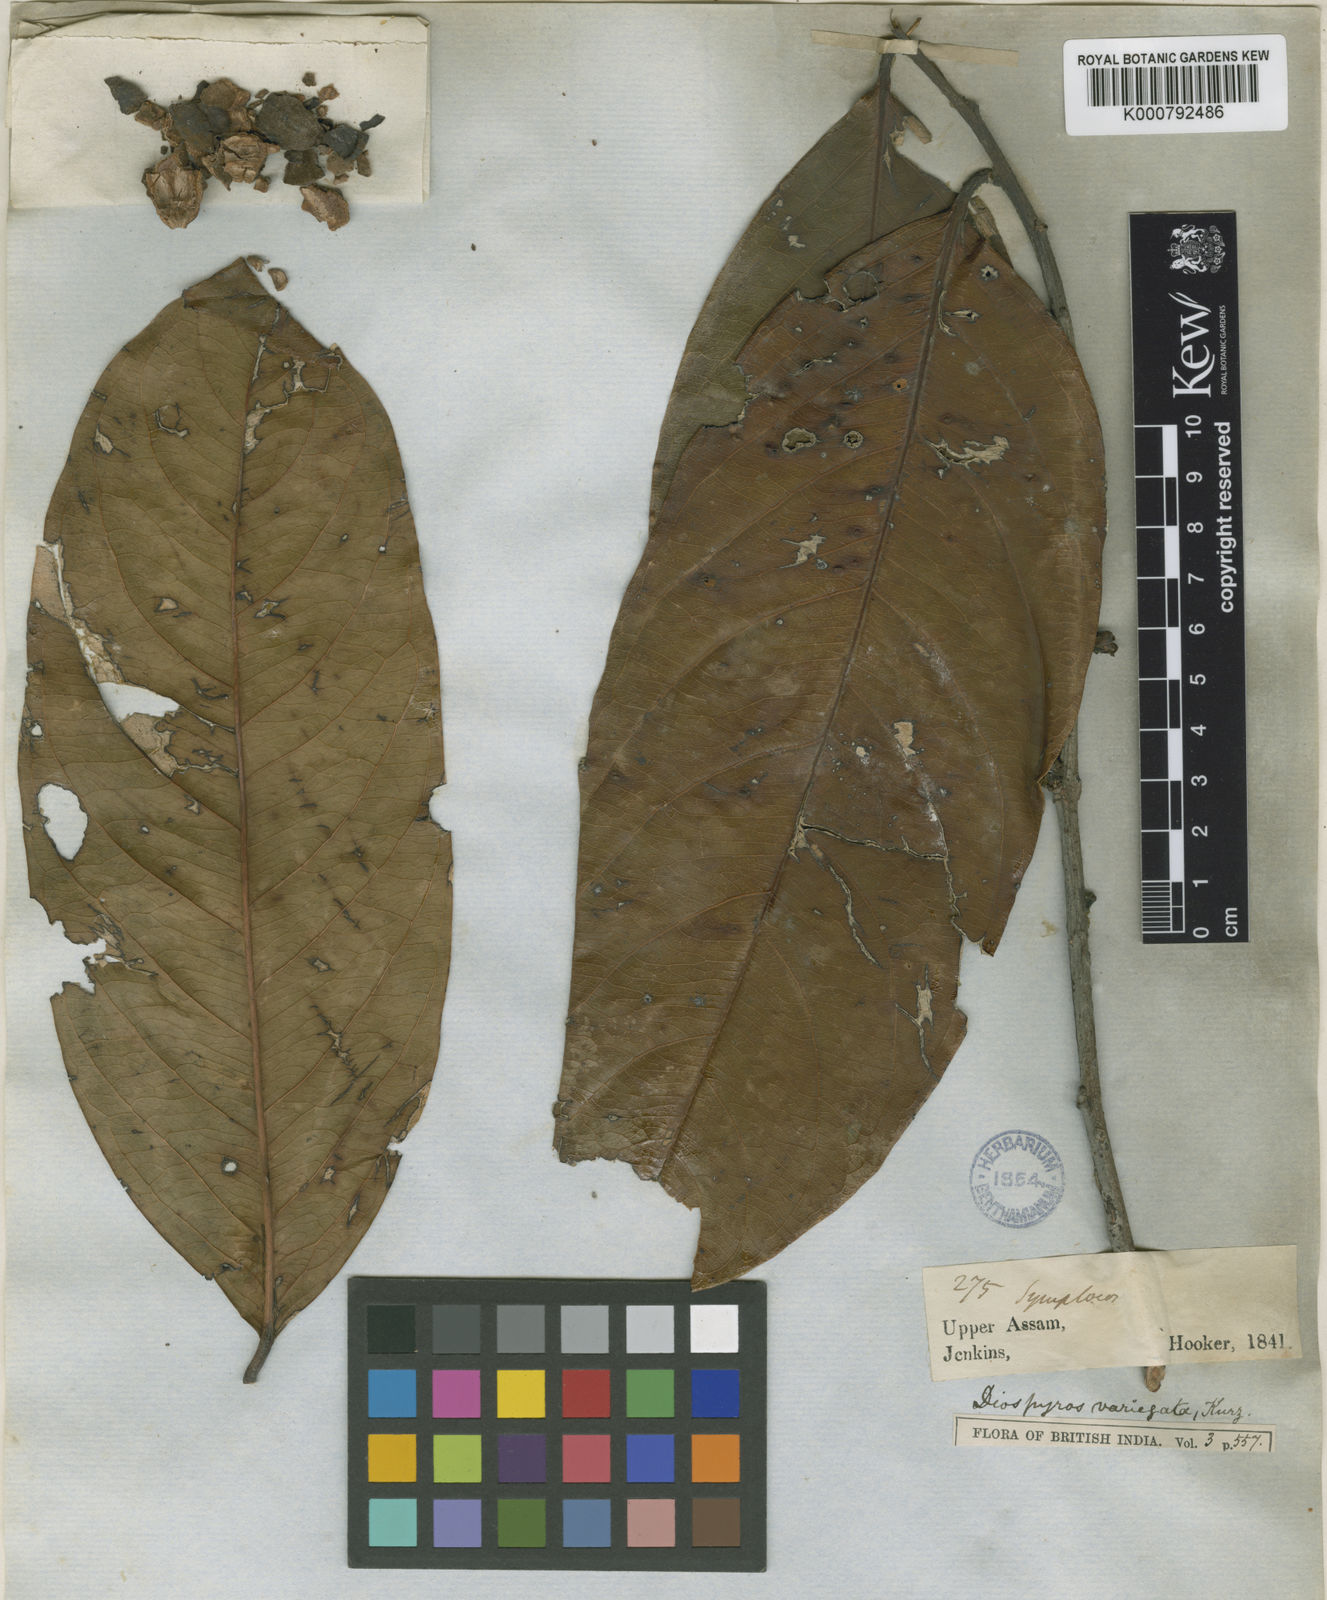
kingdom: Plantae
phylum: Tracheophyta
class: Magnoliopsida
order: Ericales
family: Ebenaceae
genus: Diospyros
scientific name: Diospyros variegata
